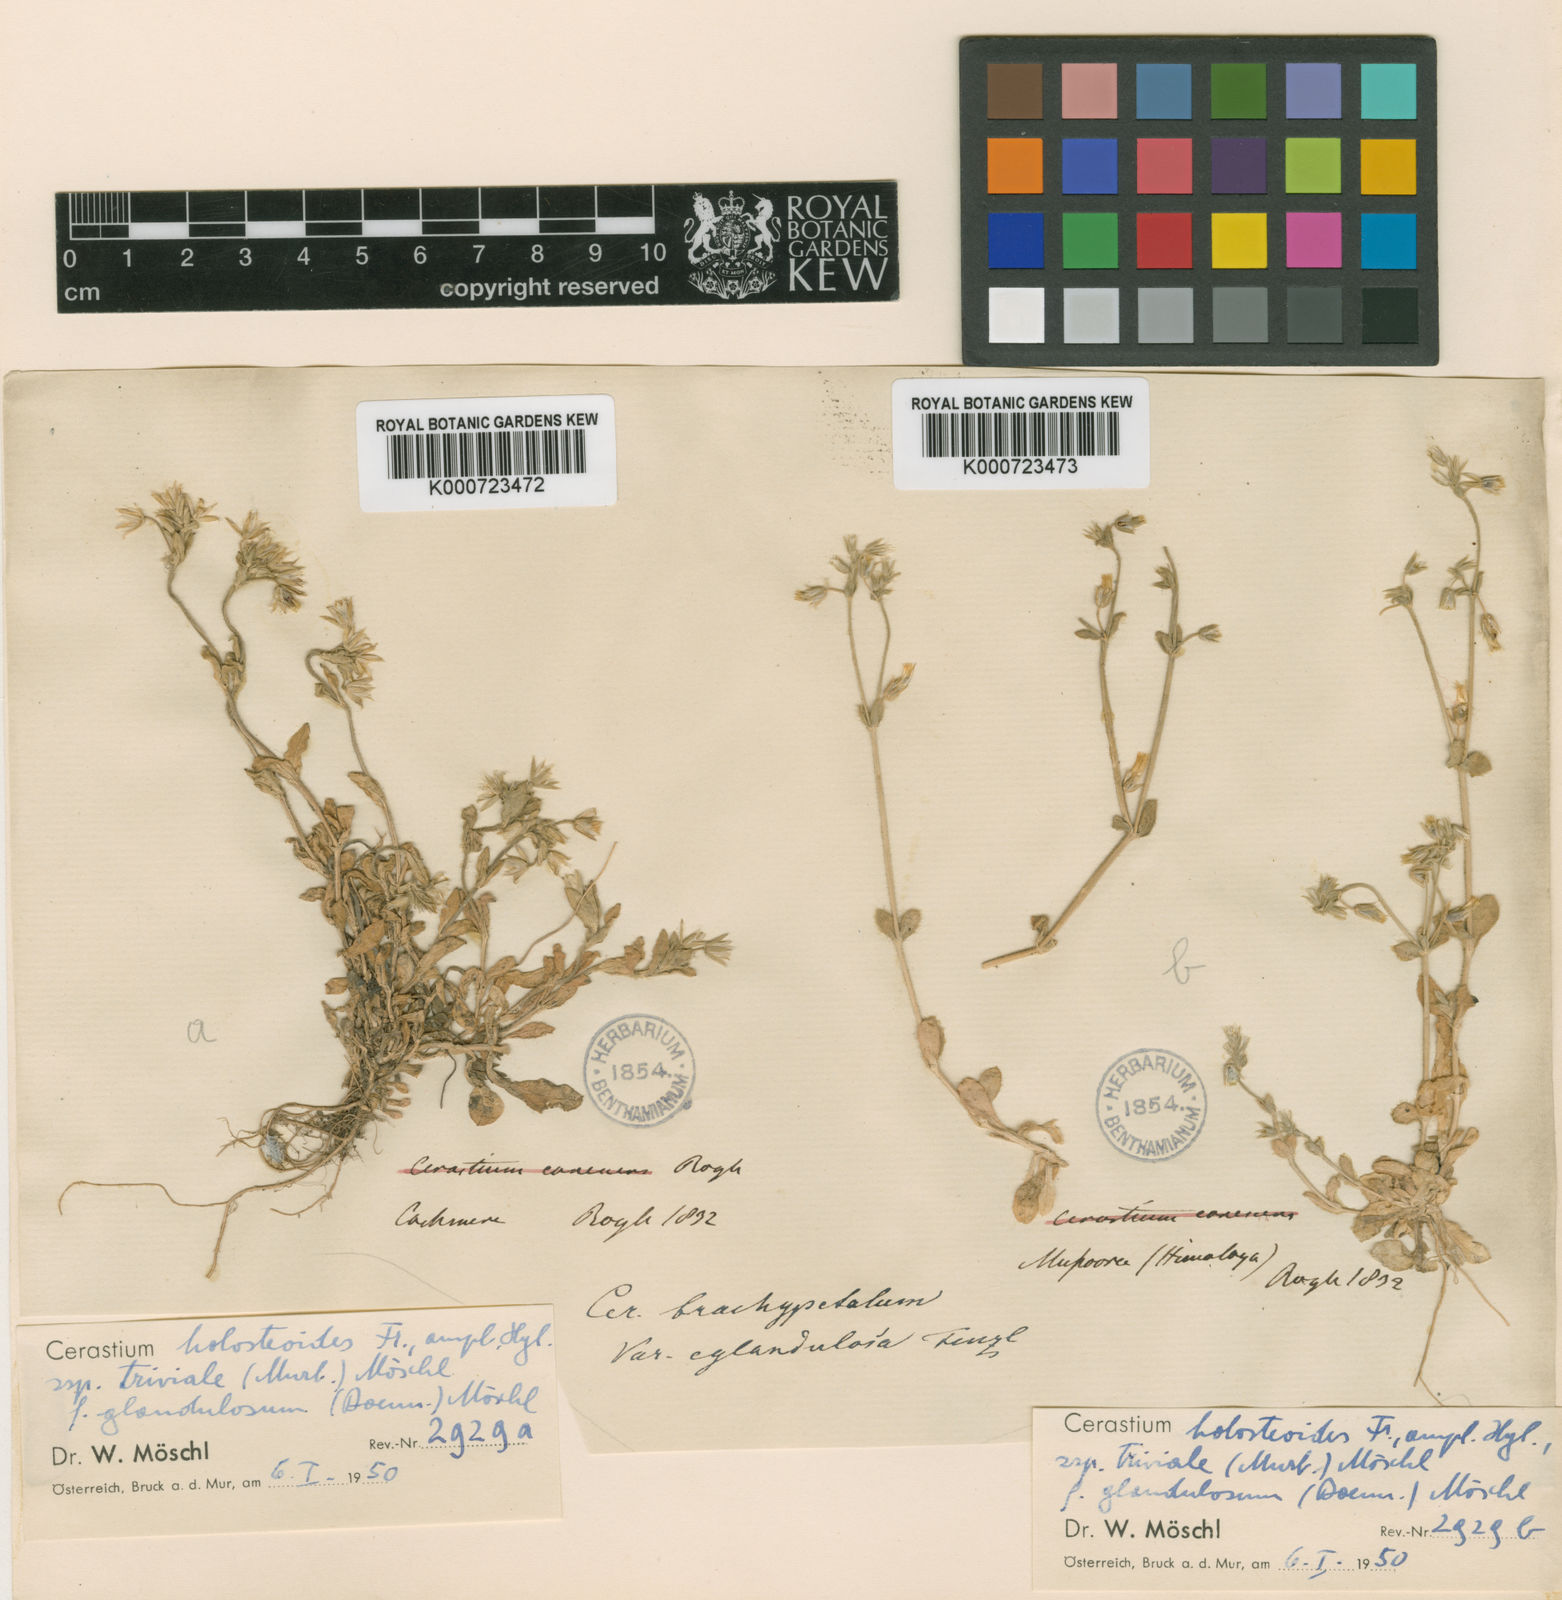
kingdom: Plantae
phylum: Tracheophyta
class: Magnoliopsida
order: Caryophyllales
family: Caryophyllaceae
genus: Cerastium
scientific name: Cerastium holosteoides
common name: Big chickweed
